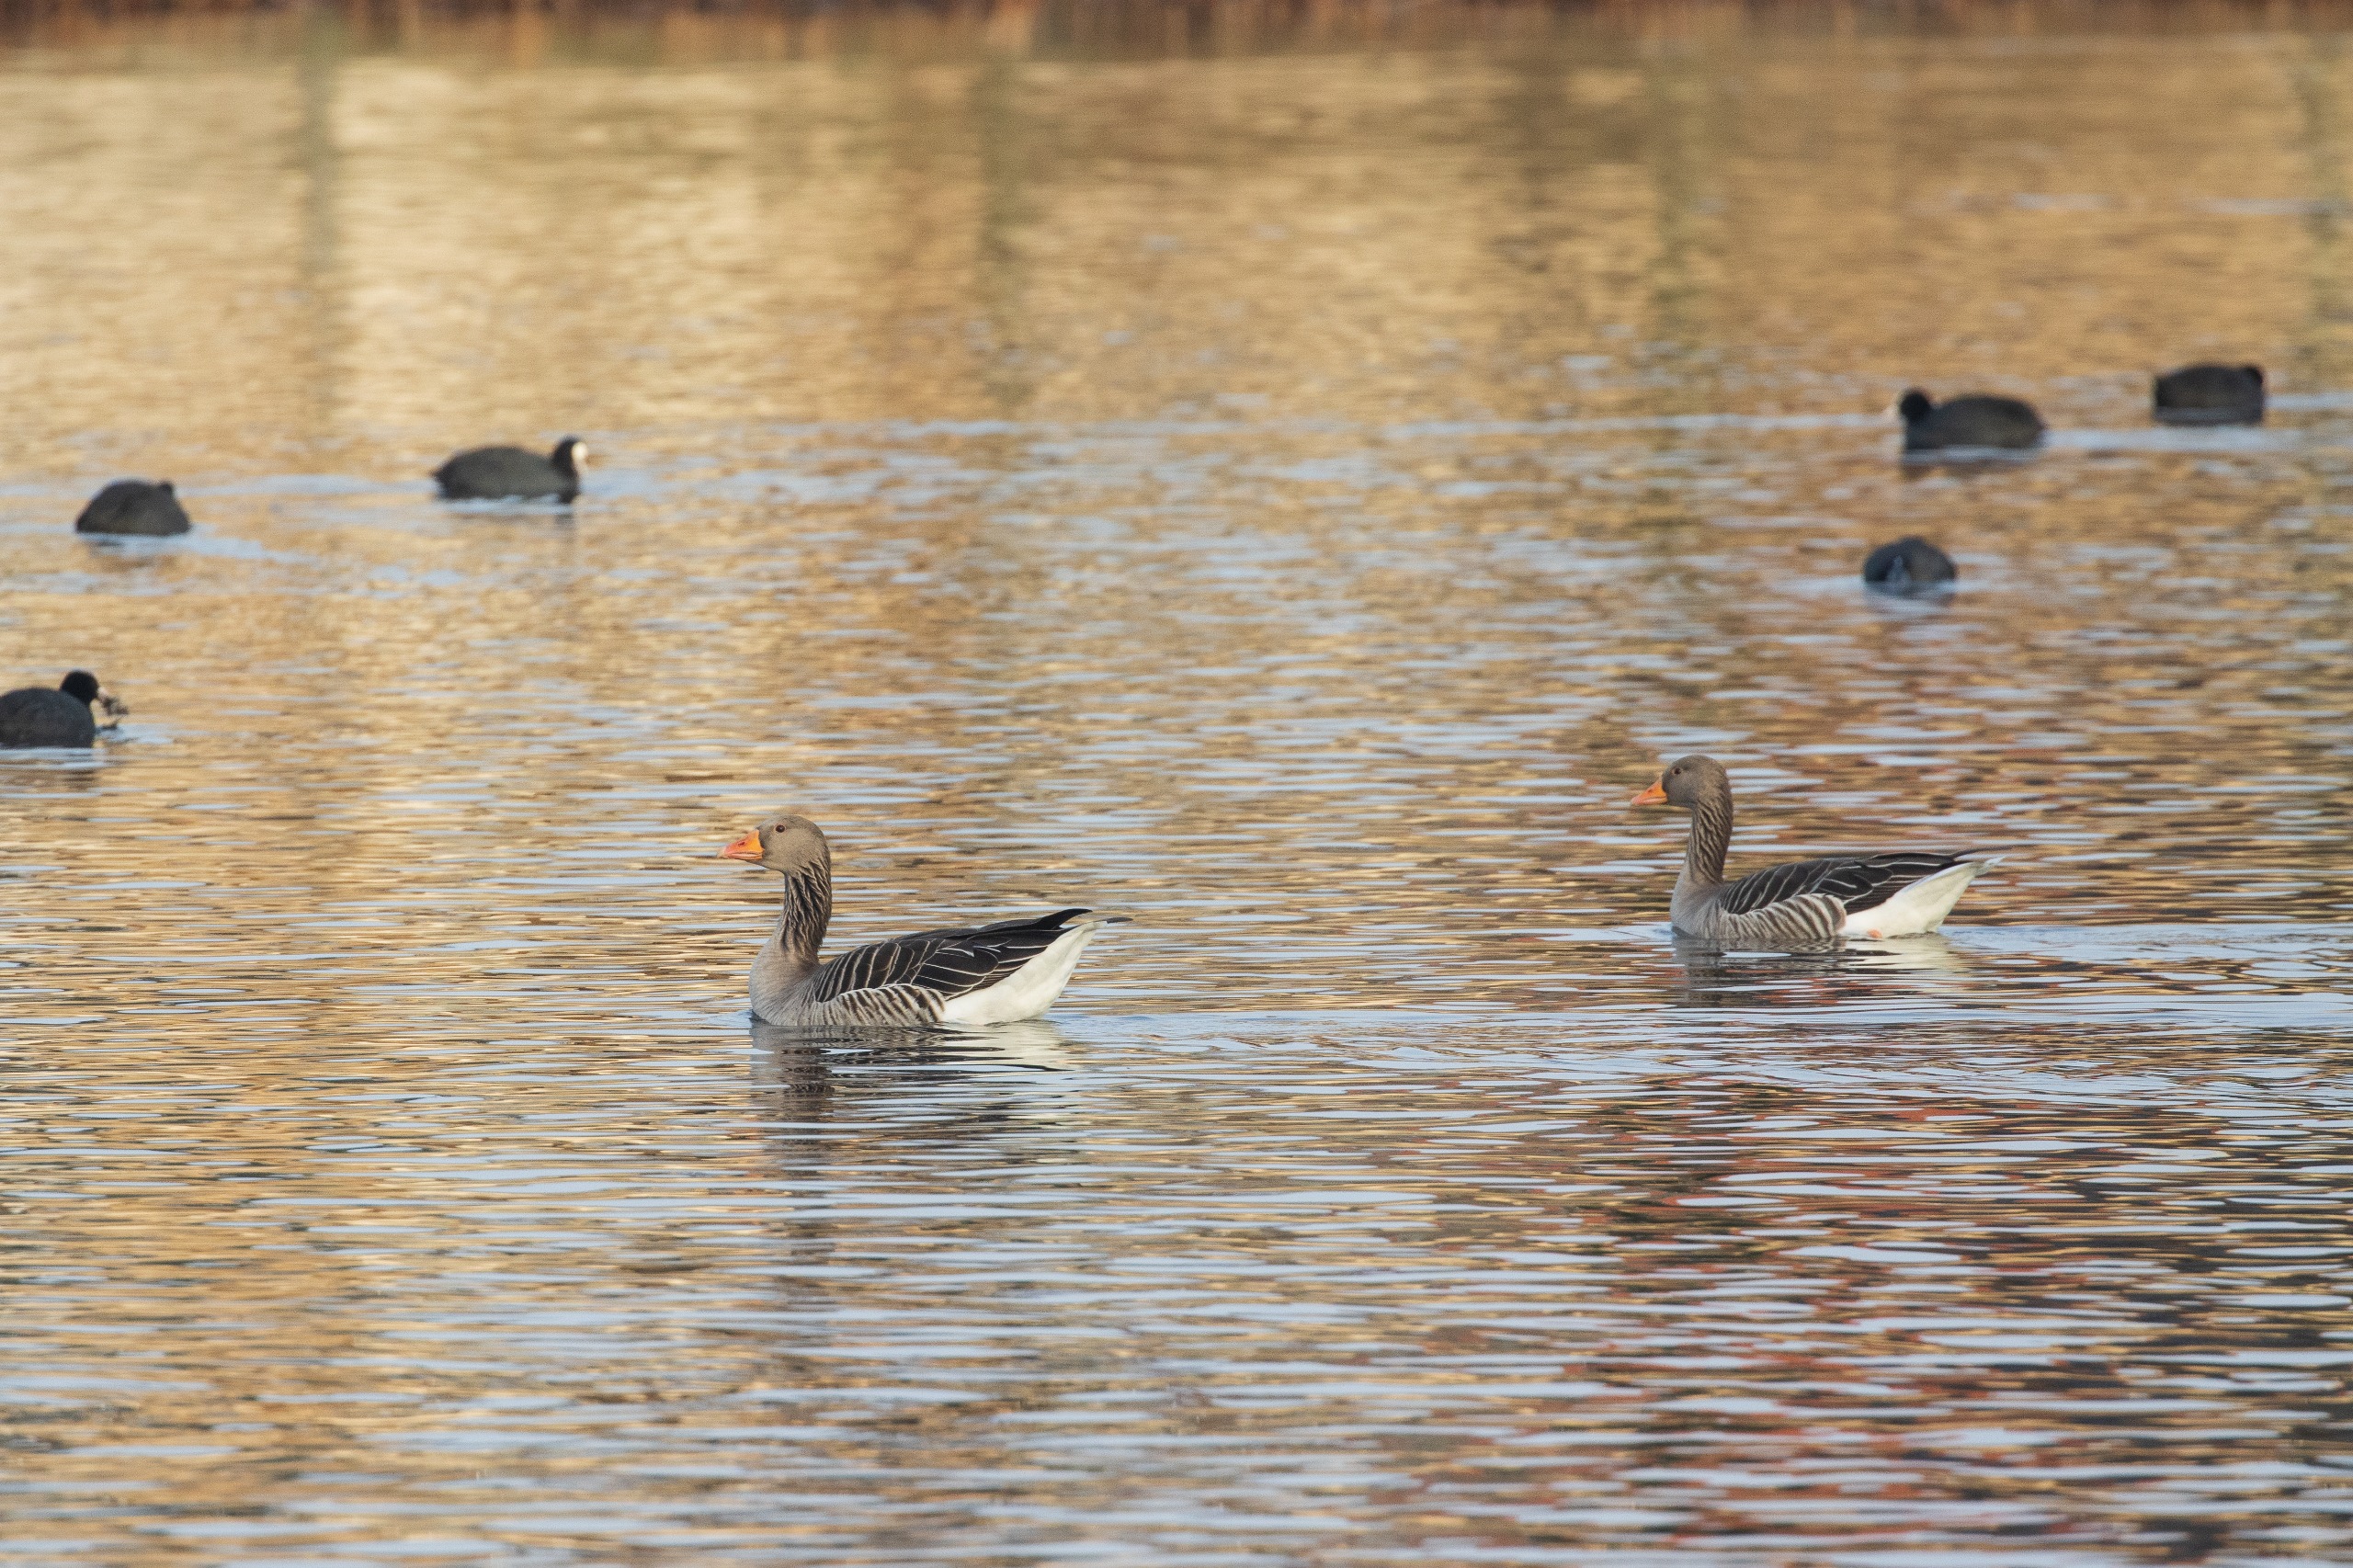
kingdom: Animalia
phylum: Chordata
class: Aves
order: Anseriformes
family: Anatidae
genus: Anser
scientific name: Anser anser
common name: Grågås
